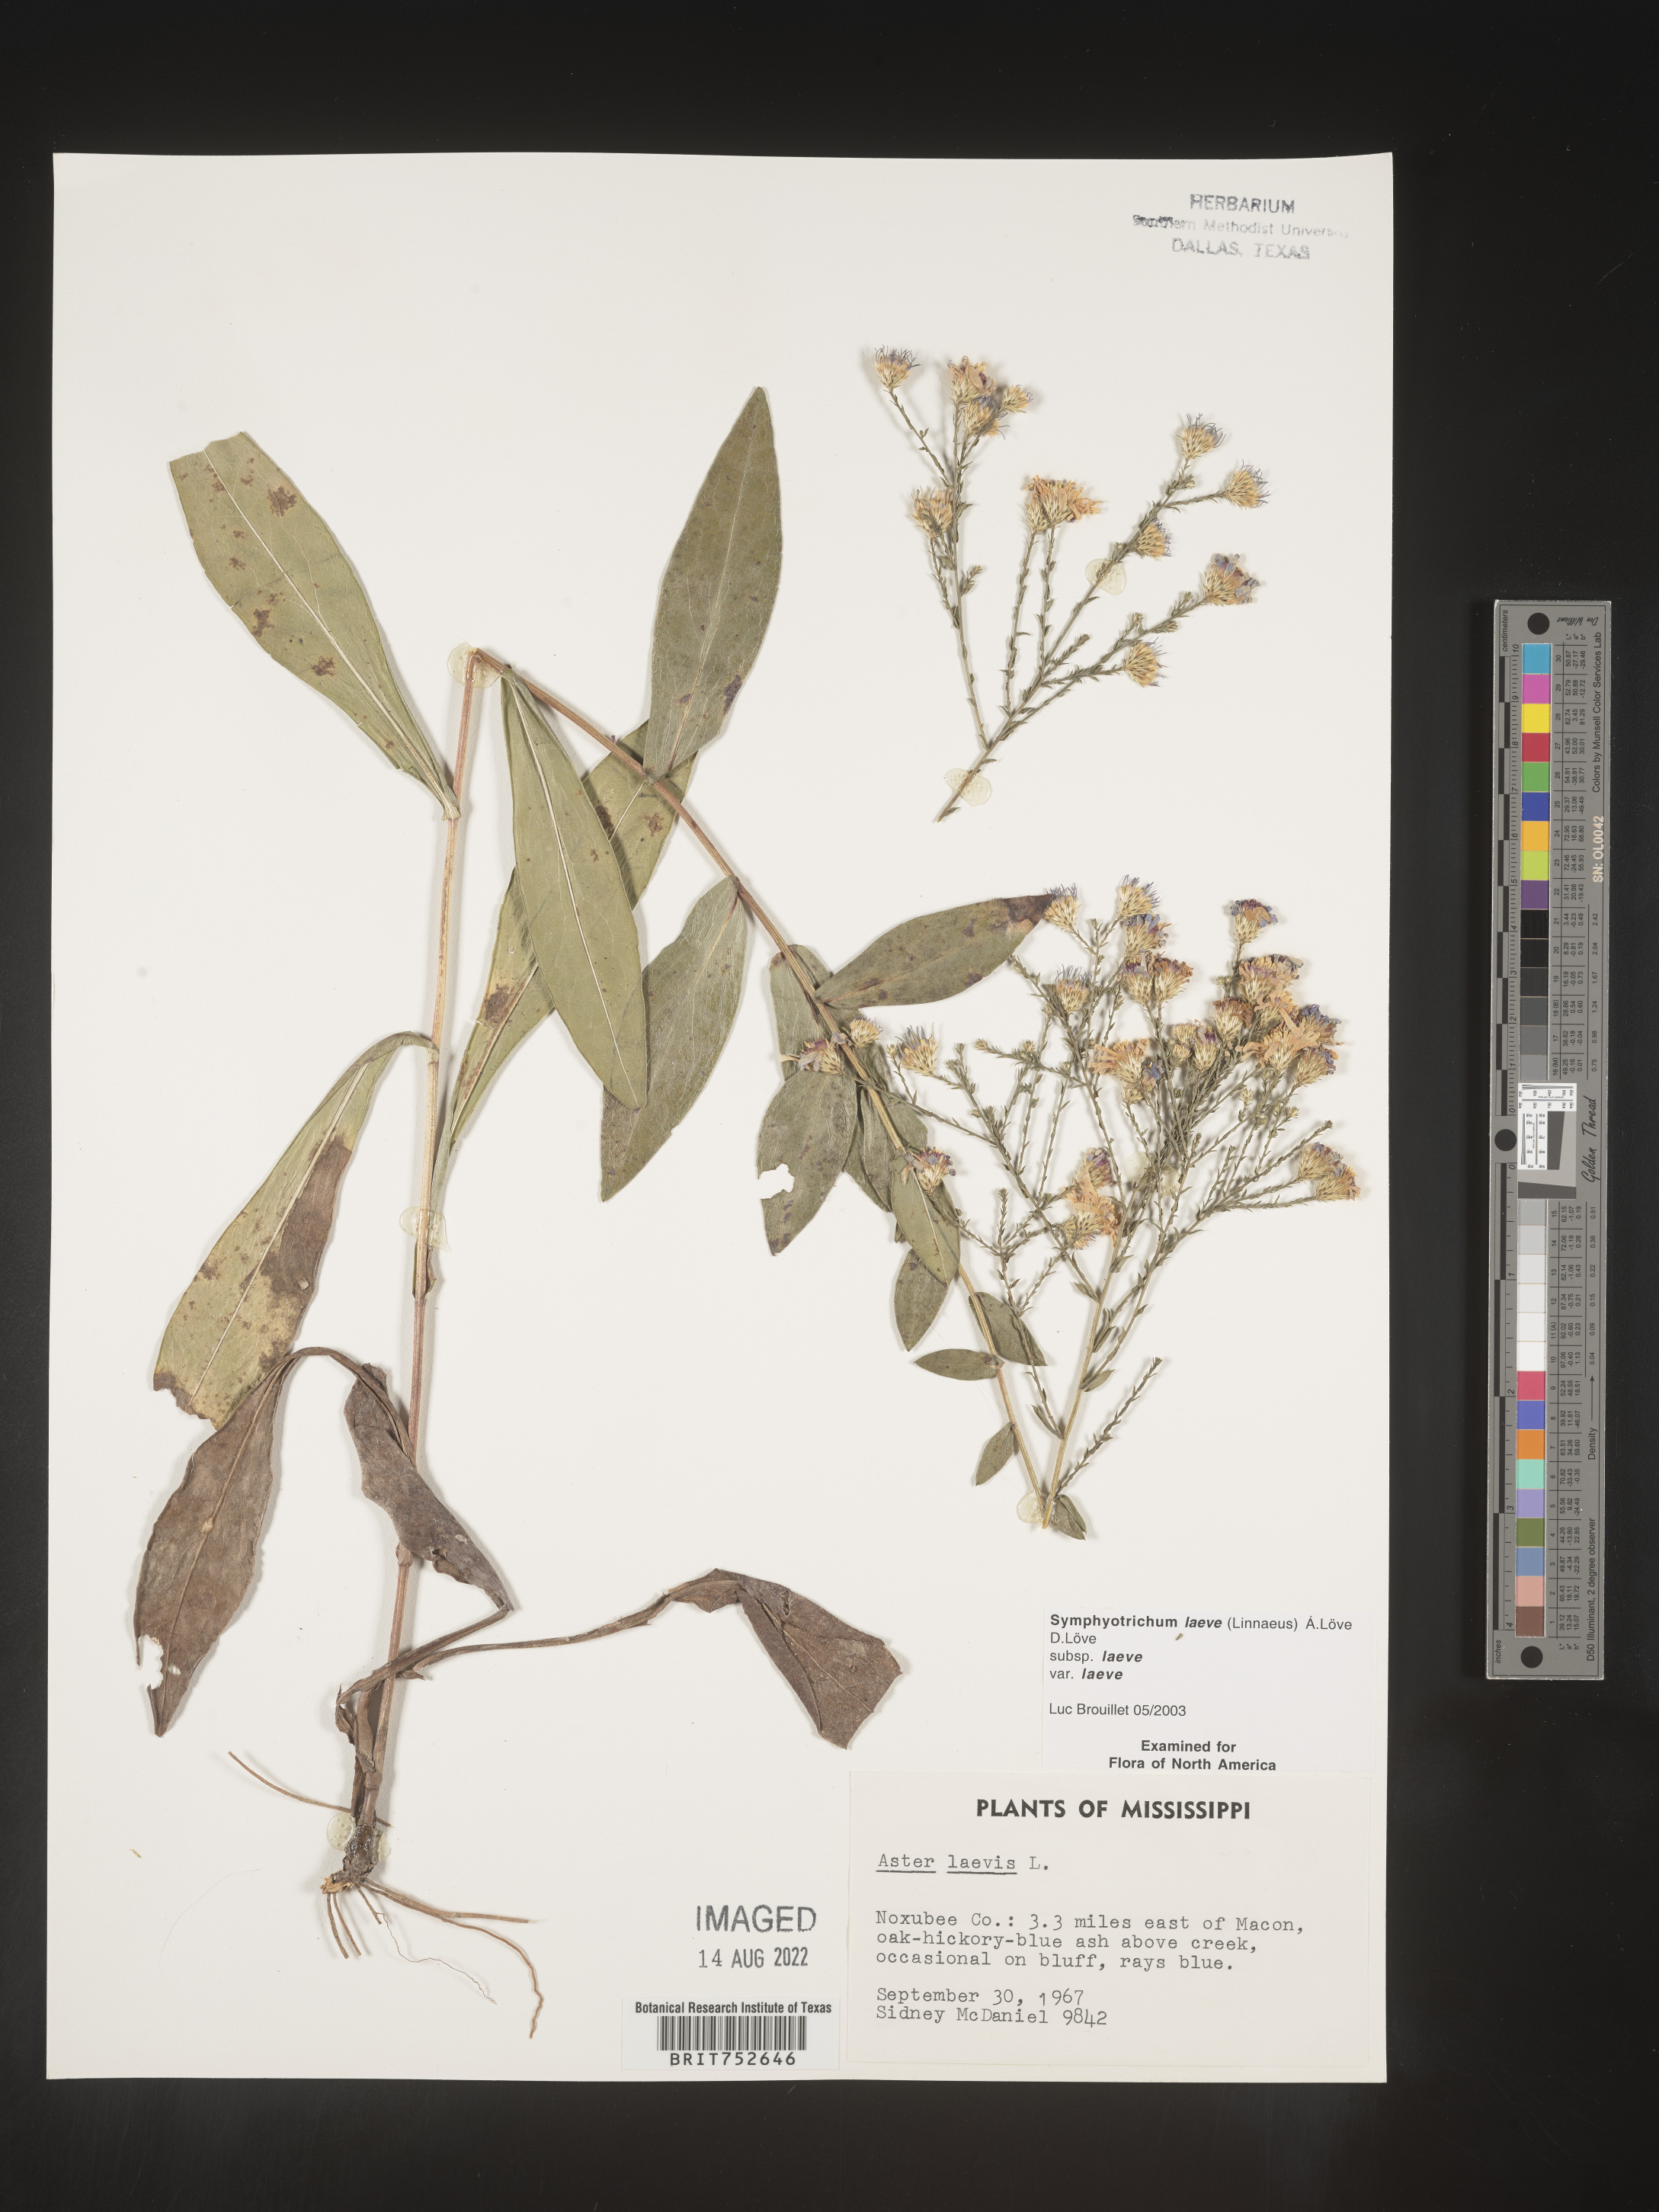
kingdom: Plantae
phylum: Tracheophyta
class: Magnoliopsida
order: Asterales
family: Asteraceae
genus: Symphyotrichum
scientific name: Symphyotrichum laeve
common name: Glaucous aster
